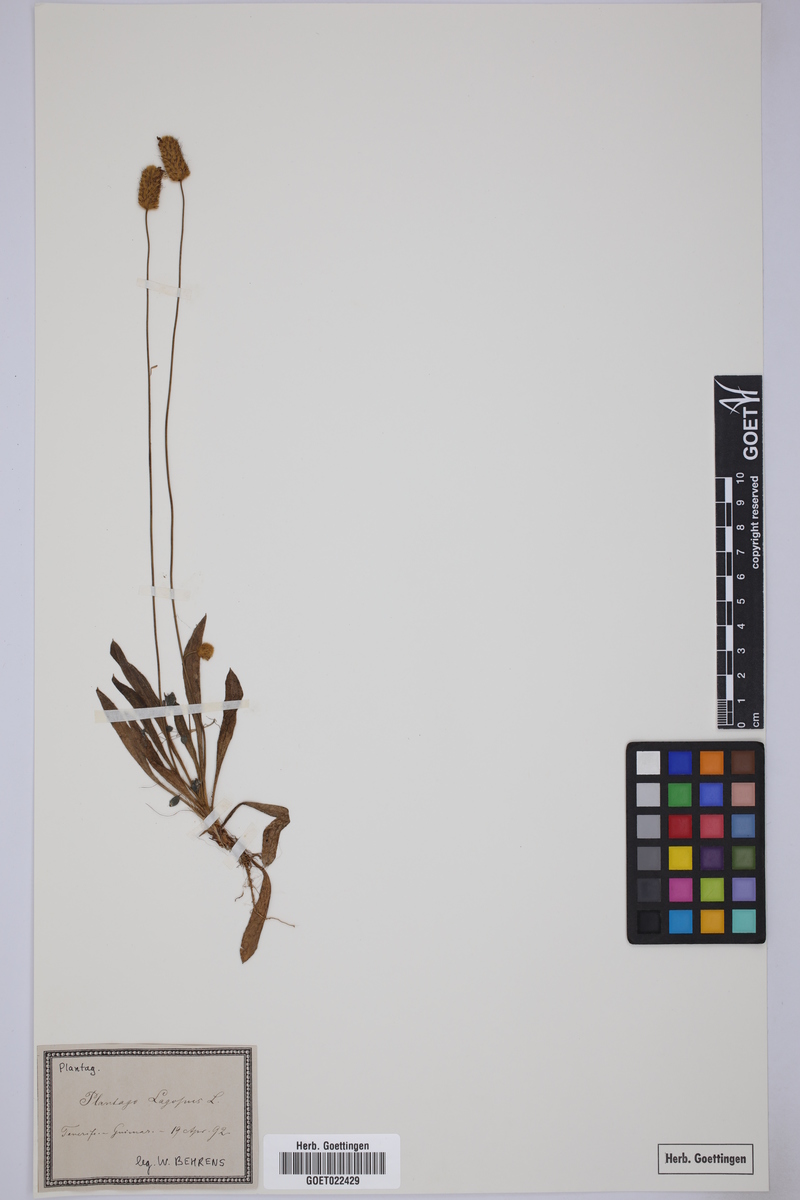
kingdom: Plantae
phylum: Tracheophyta
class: Magnoliopsida
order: Lamiales
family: Plantaginaceae
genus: Plantago
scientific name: Plantago lagopus
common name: Hare-foot plantain
